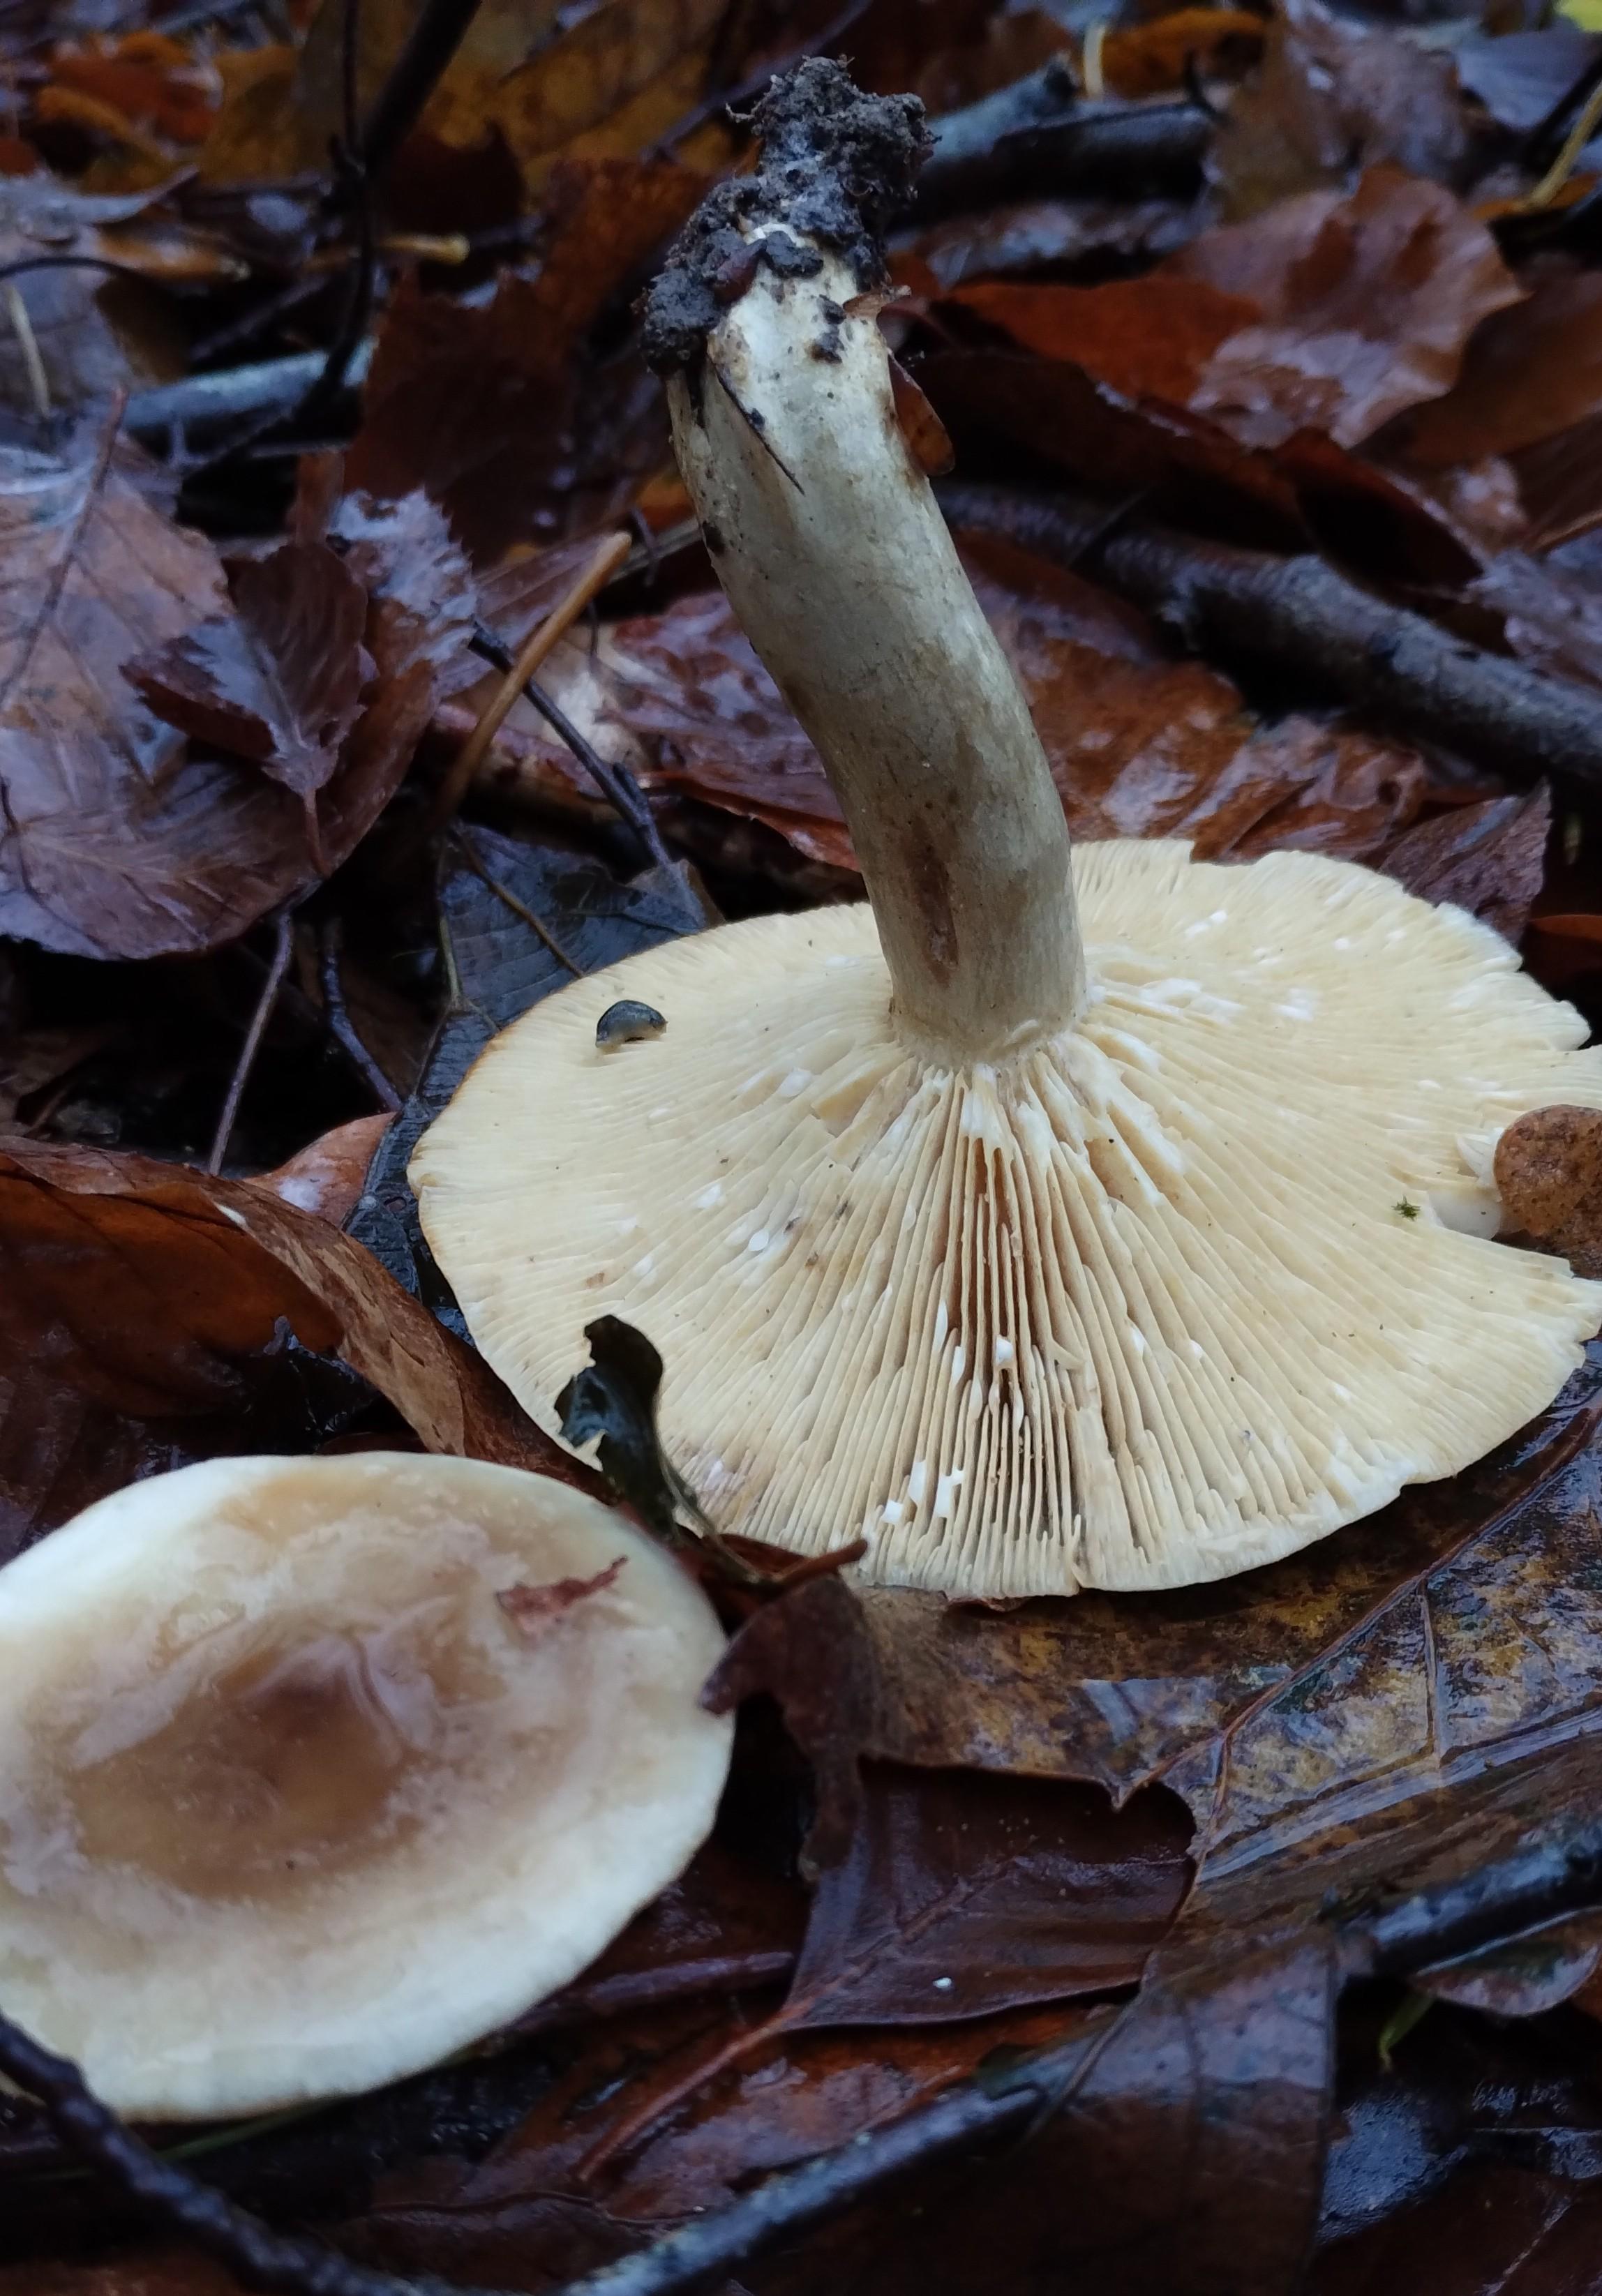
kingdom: Fungi
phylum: Basidiomycota
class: Agaricomycetes
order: Russulales
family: Russulaceae
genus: Lactarius
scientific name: Lactarius
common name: mælkehat
